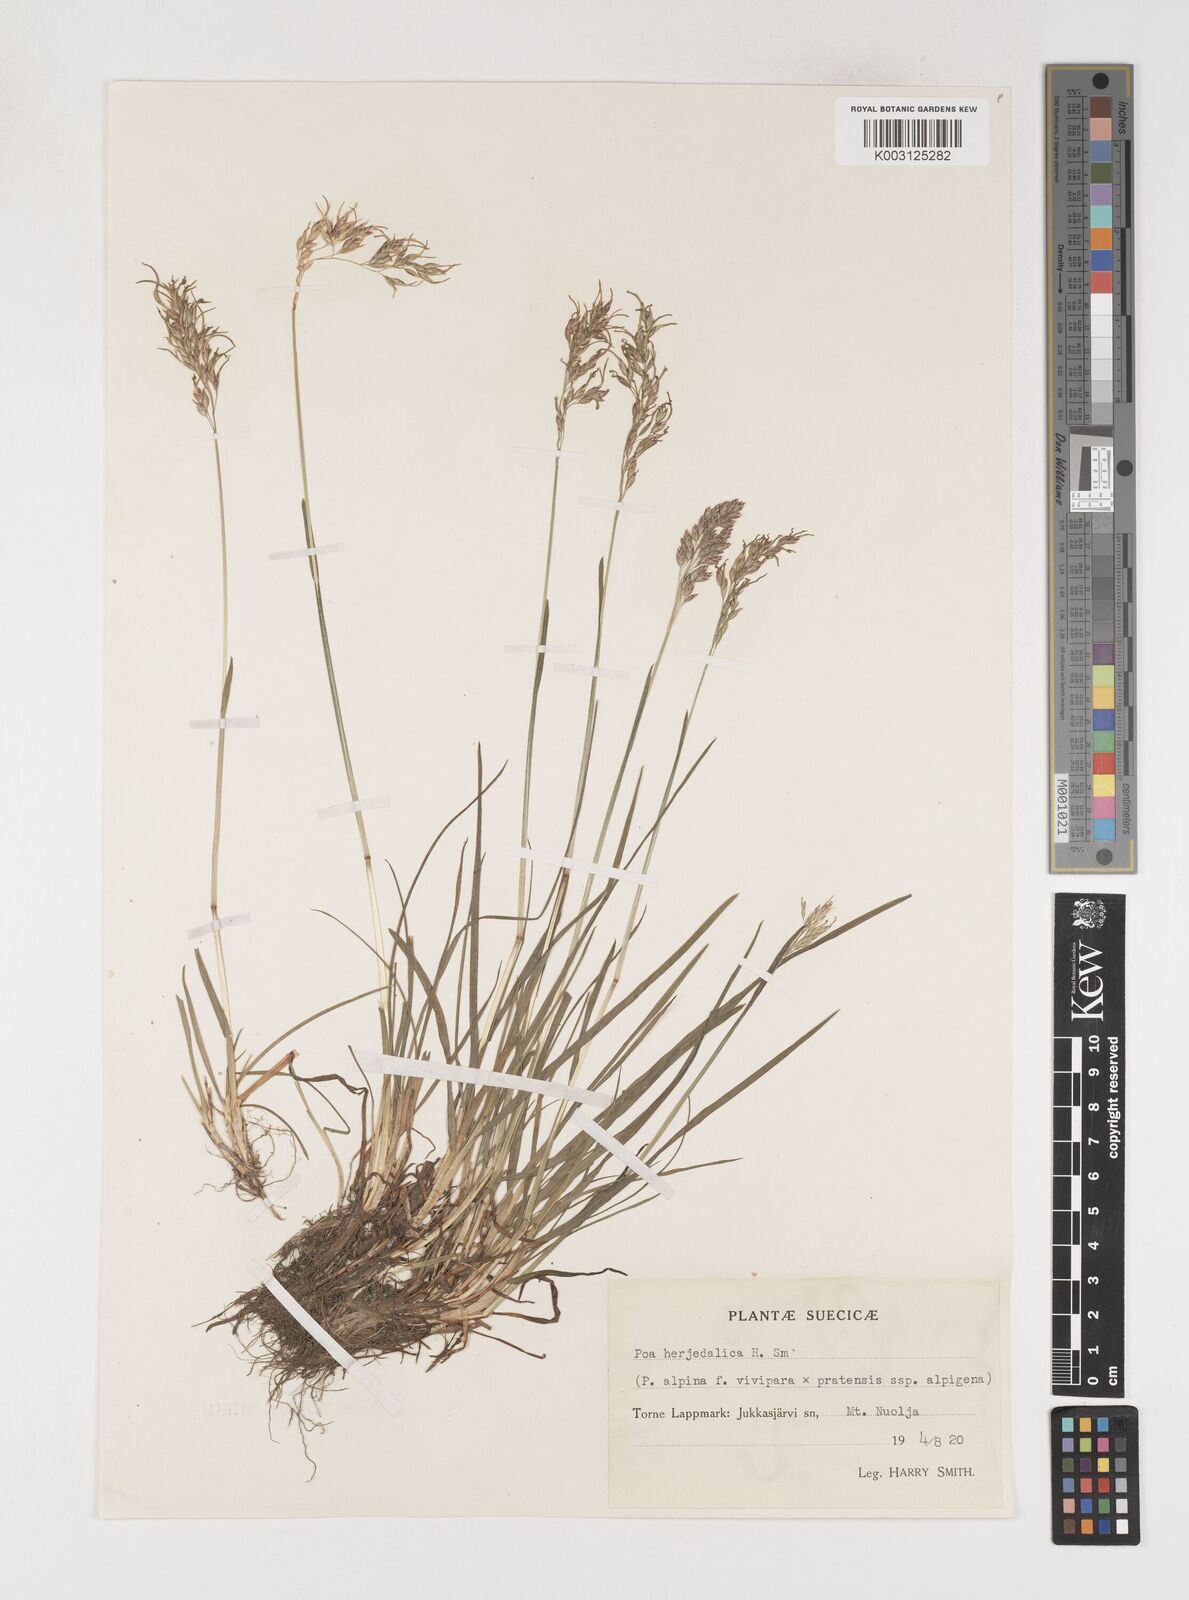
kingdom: Plantae
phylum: Tracheophyta
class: Liliopsida
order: Poales
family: Poaceae
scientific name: Poaceae
